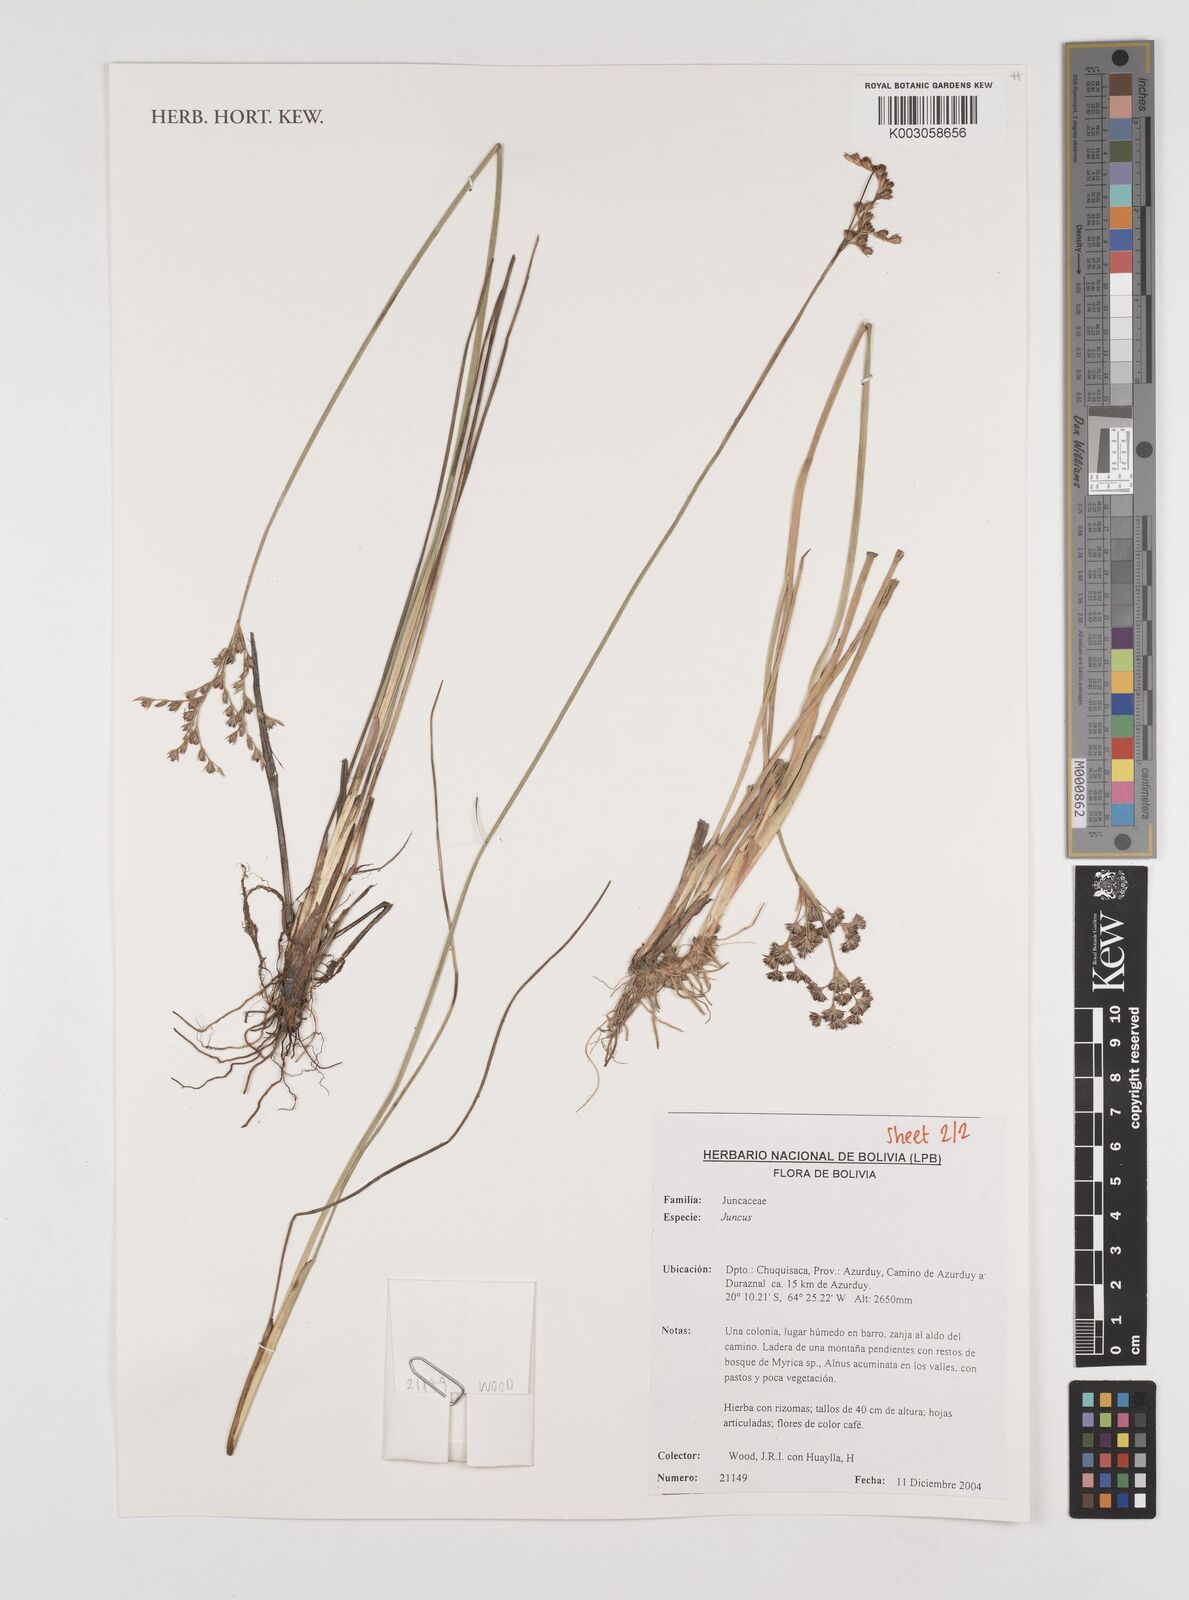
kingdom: Plantae
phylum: Tracheophyta
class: Liliopsida
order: Poales
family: Juncaceae
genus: Juncus
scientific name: Juncus
